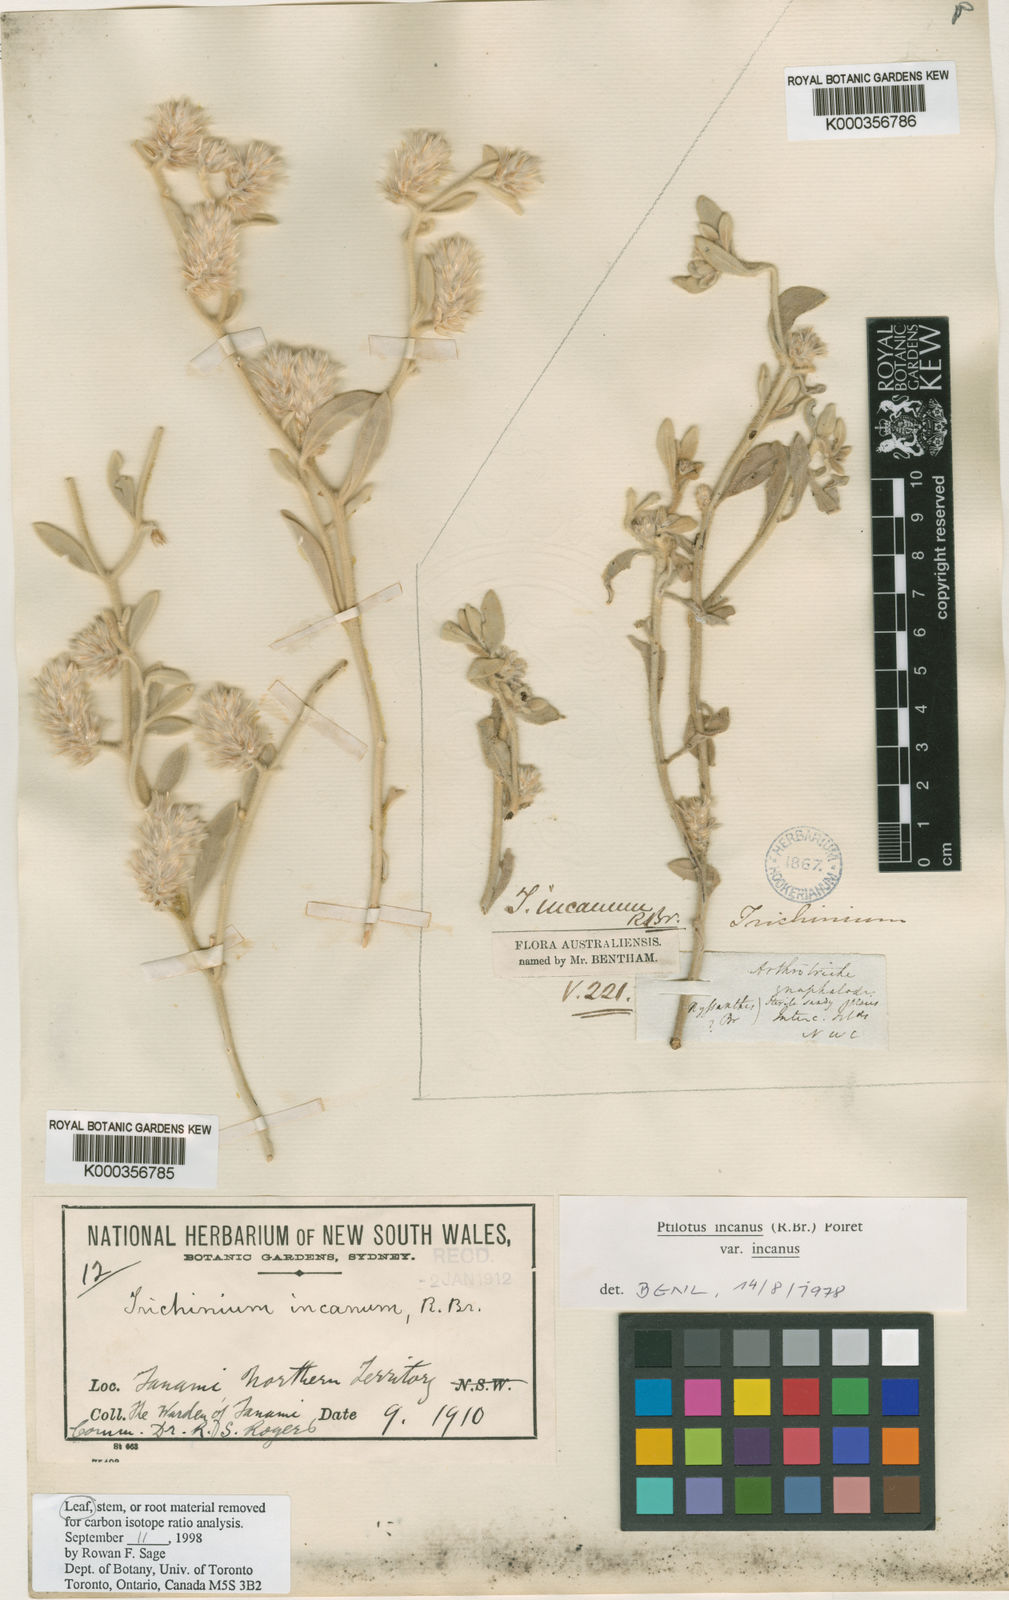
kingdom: Plantae
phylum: Tracheophyta
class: Magnoliopsida
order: Caryophyllales
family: Amaranthaceae
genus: Ptilotus
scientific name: Ptilotus
